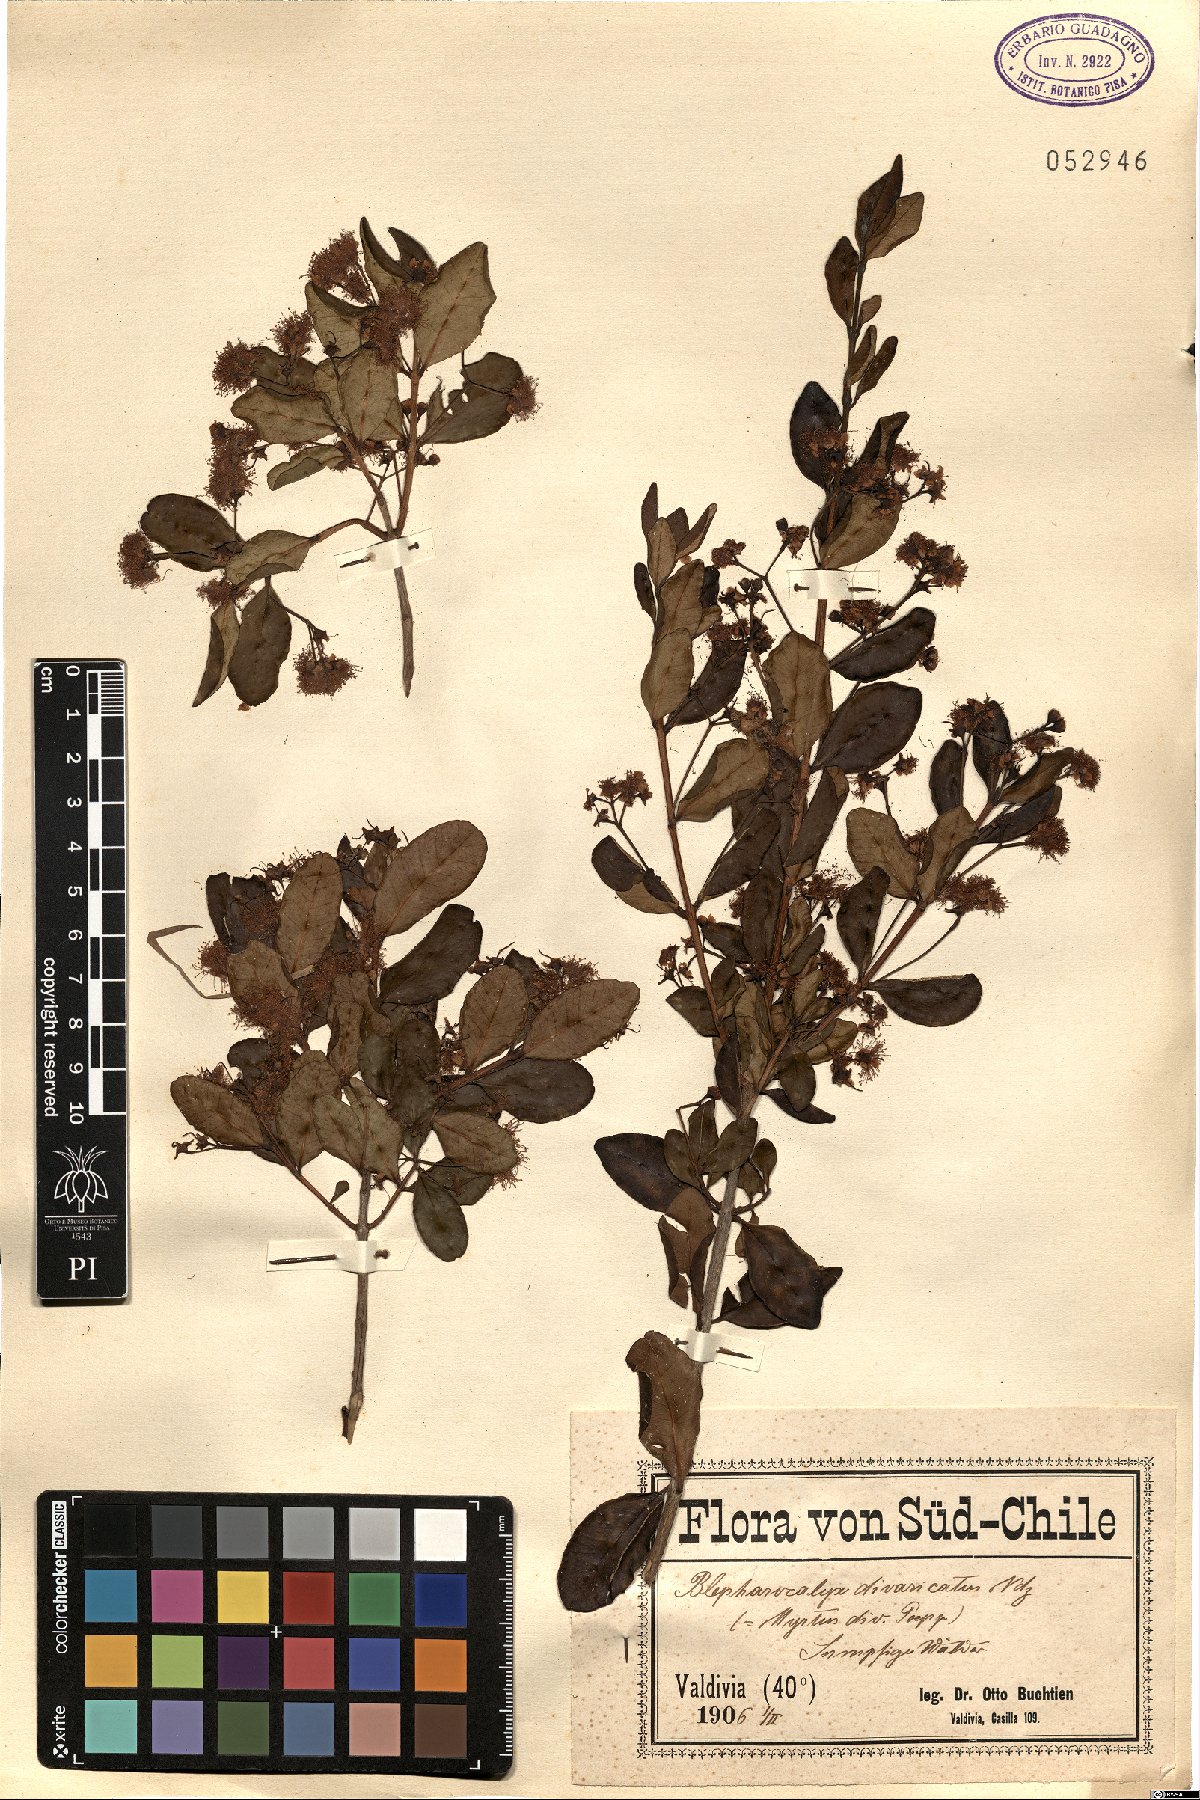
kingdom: Plantae
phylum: Tracheophyta
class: Magnoliopsida
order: Myrtales
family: Myrtaceae
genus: Blepharocalyx
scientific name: Blepharocalyx cruckshanksii
